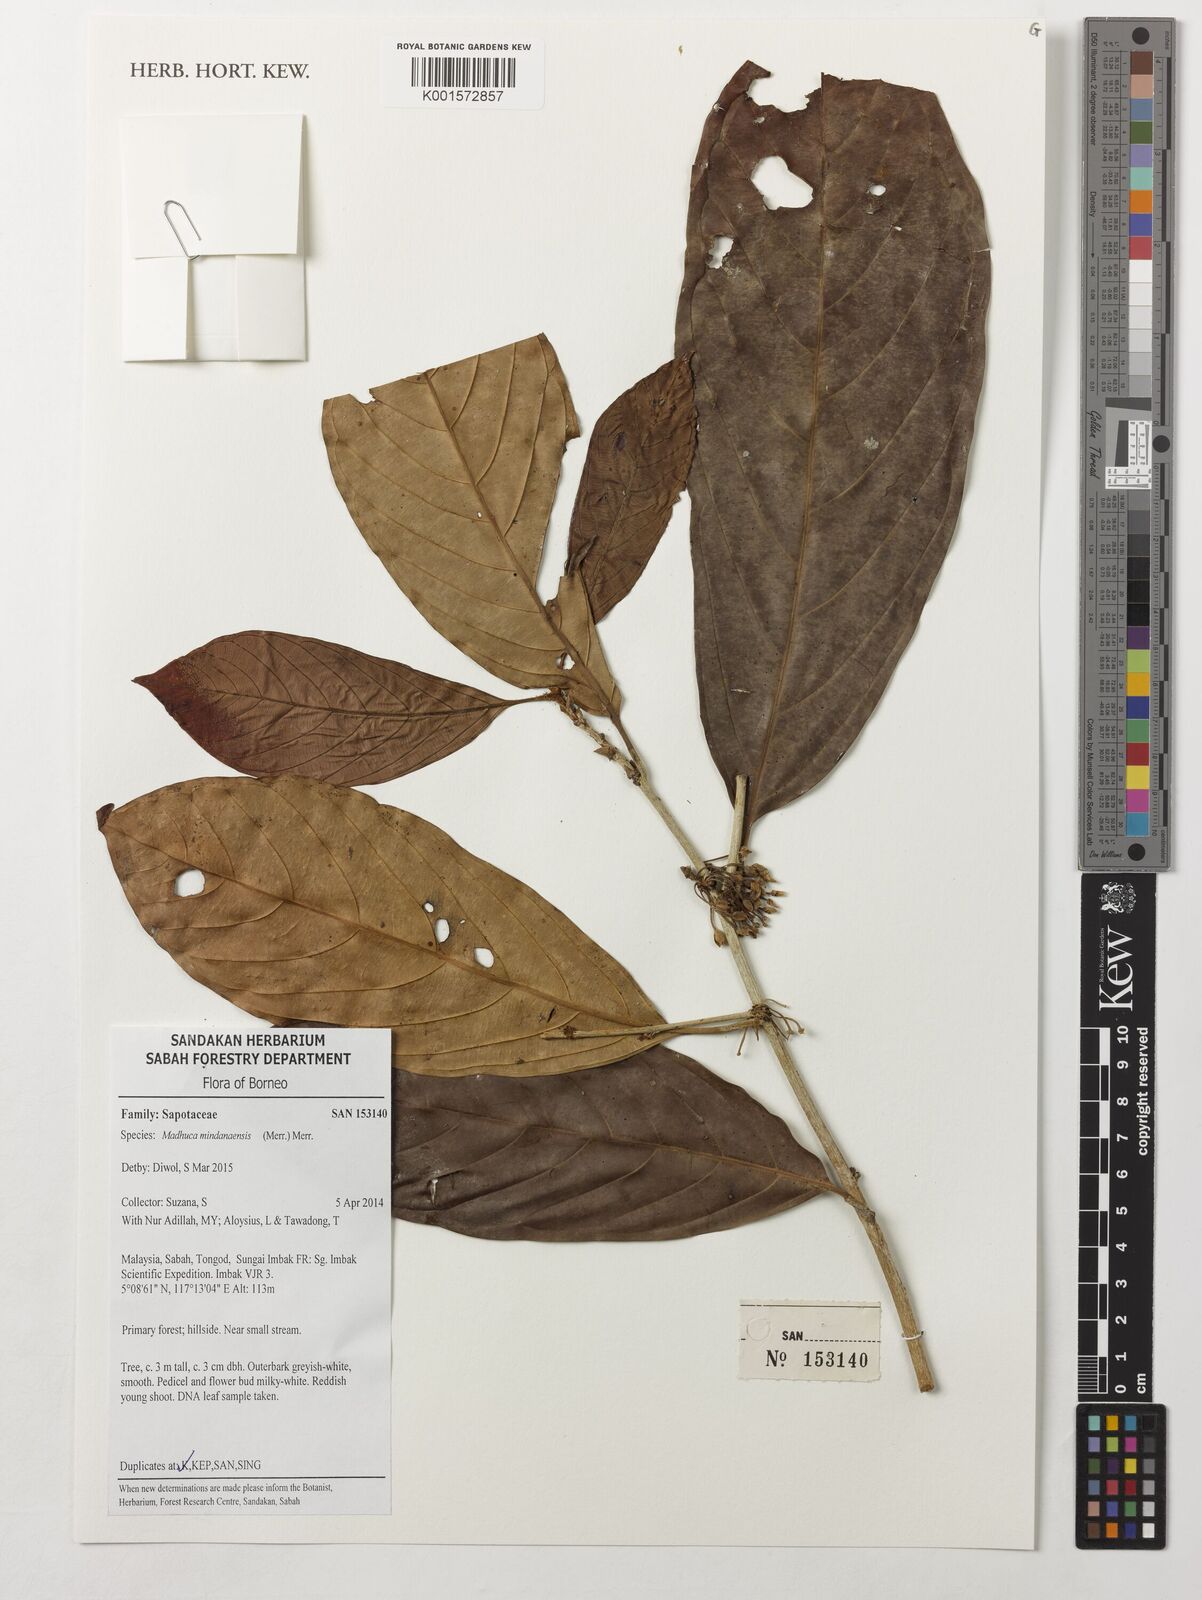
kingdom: Plantae
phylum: Tracheophyta
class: Magnoliopsida
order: Ericales
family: Sapotaceae
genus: Madhuca
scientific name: Madhuca mindanaensis
